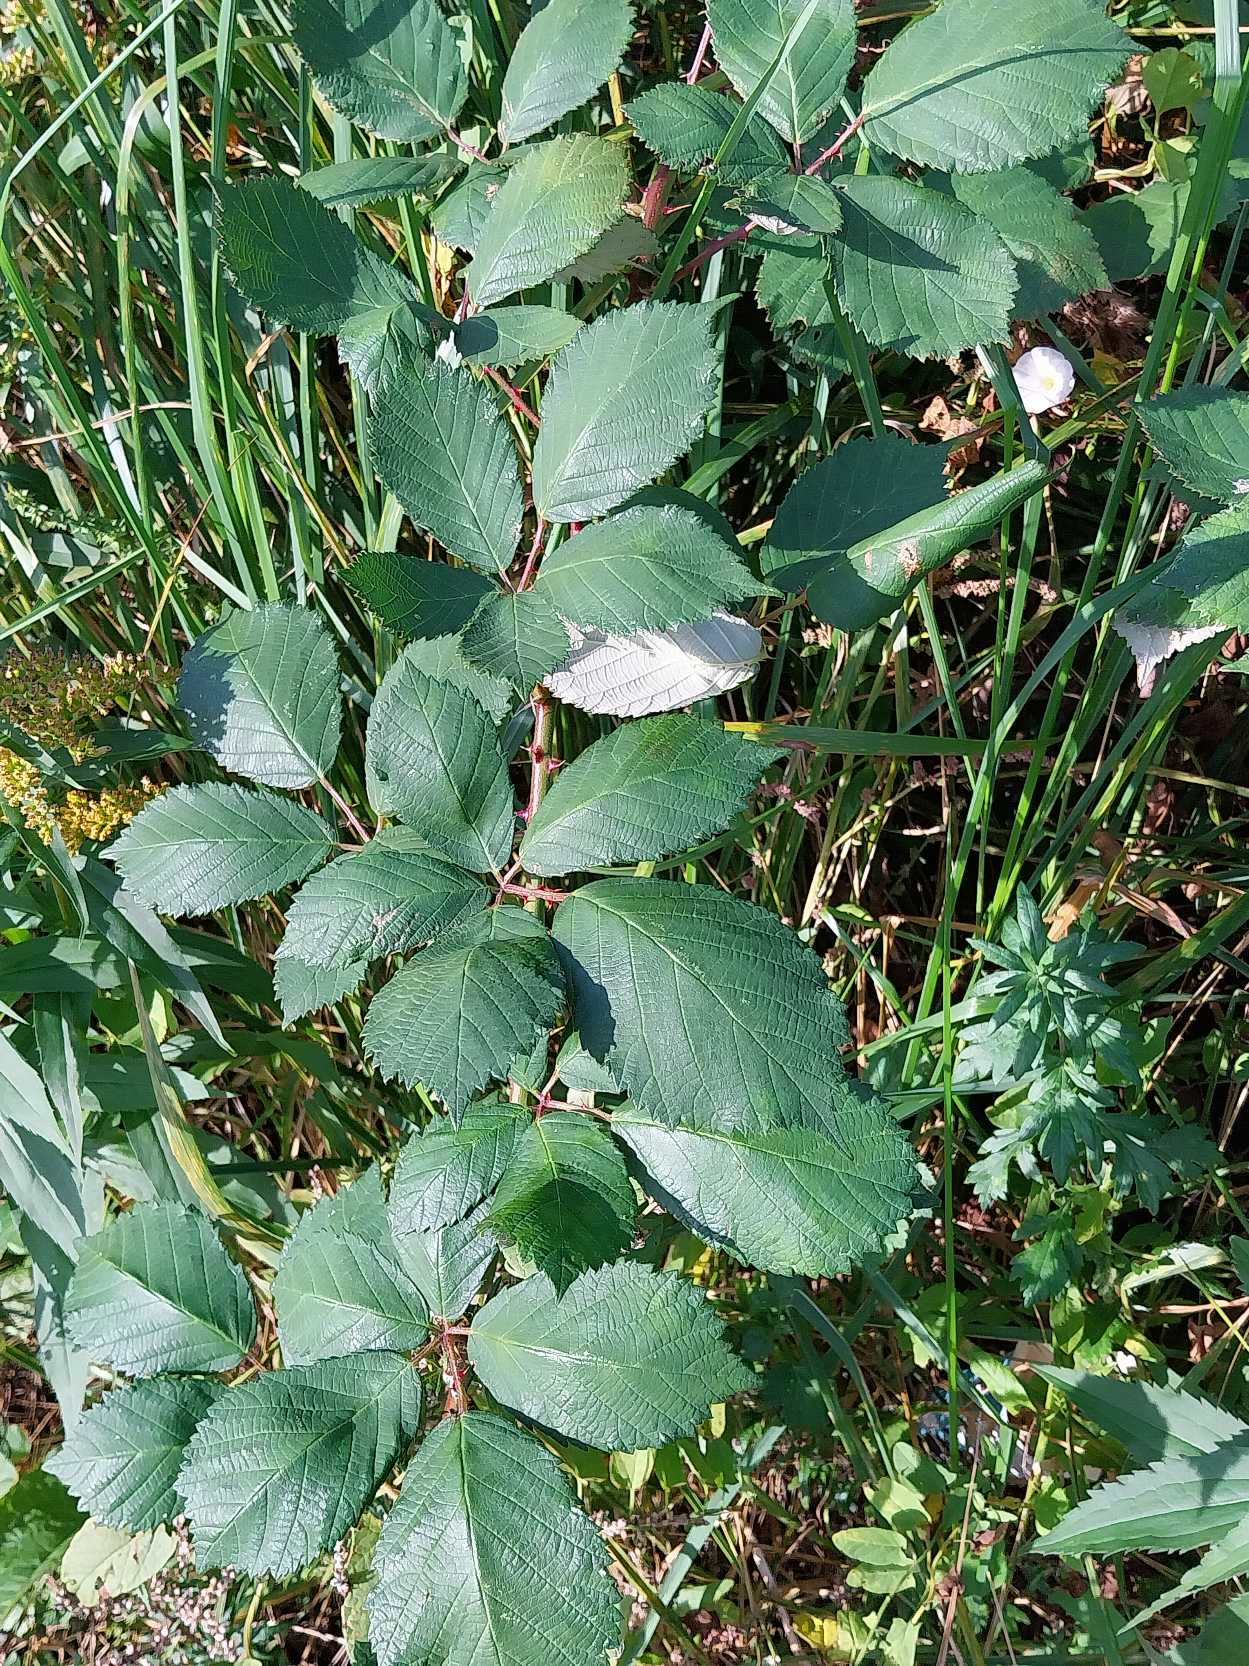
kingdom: Plantae
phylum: Tracheophyta
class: Magnoliopsida
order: Rosales
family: Rosaceae
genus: Rubus
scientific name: Rubus armeniacus
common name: Armensk brombær
